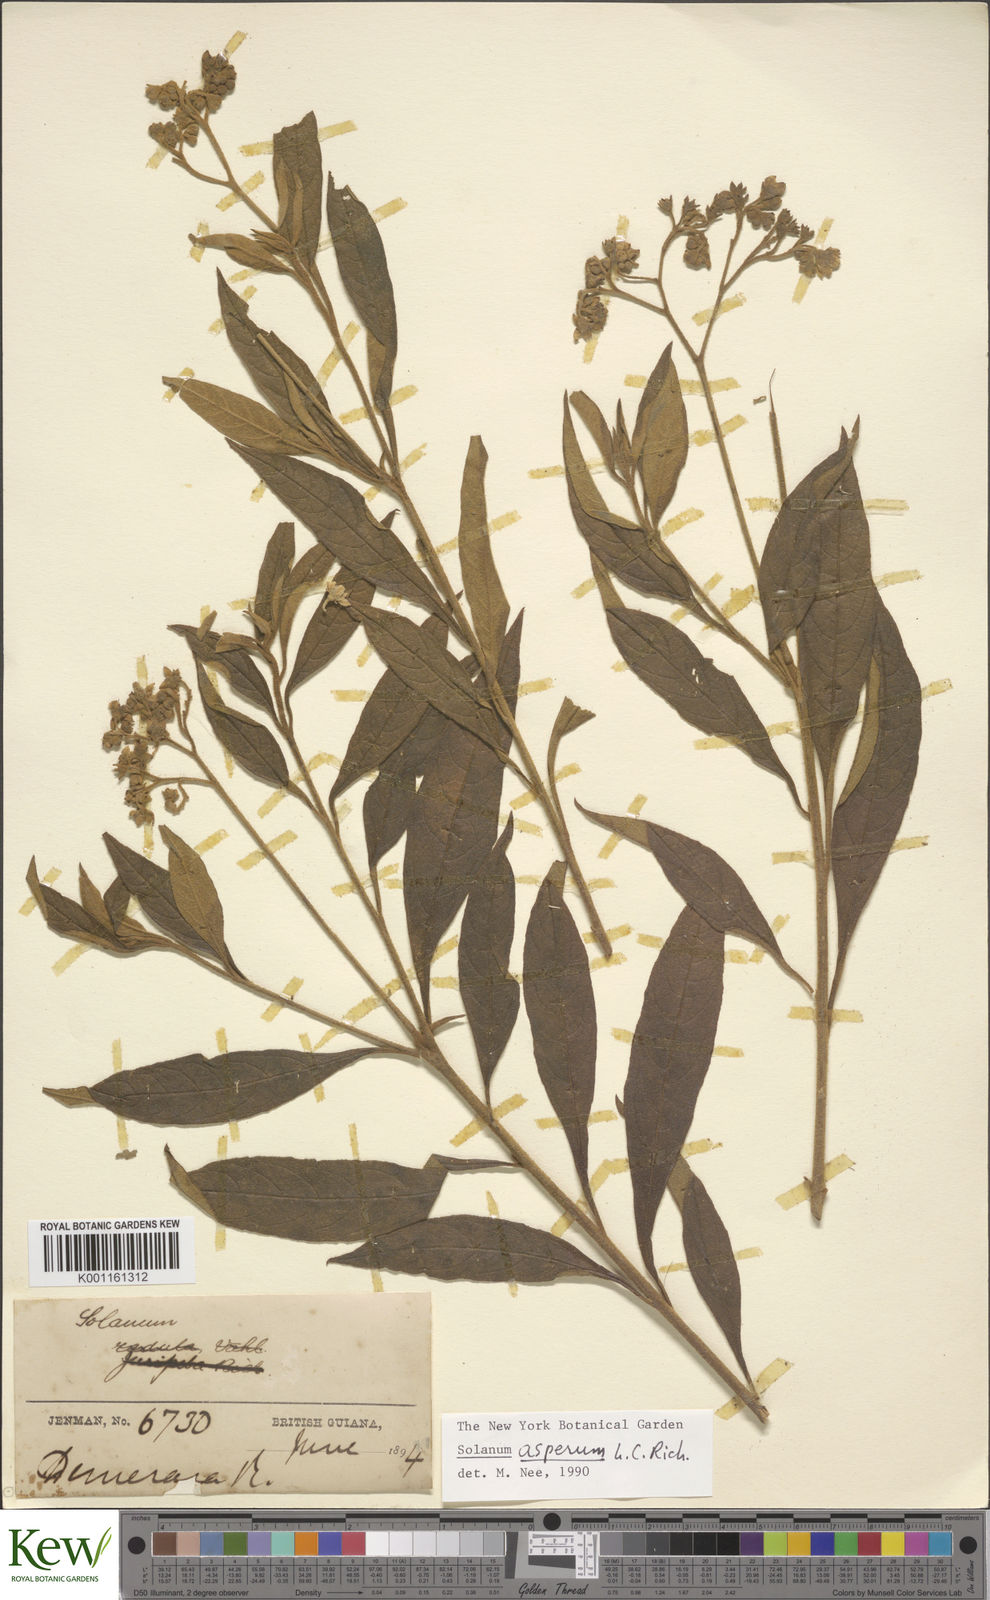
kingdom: Plantae
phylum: Tracheophyta
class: Magnoliopsida
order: Solanales
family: Solanaceae
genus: Solanum
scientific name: Solanum asperum
